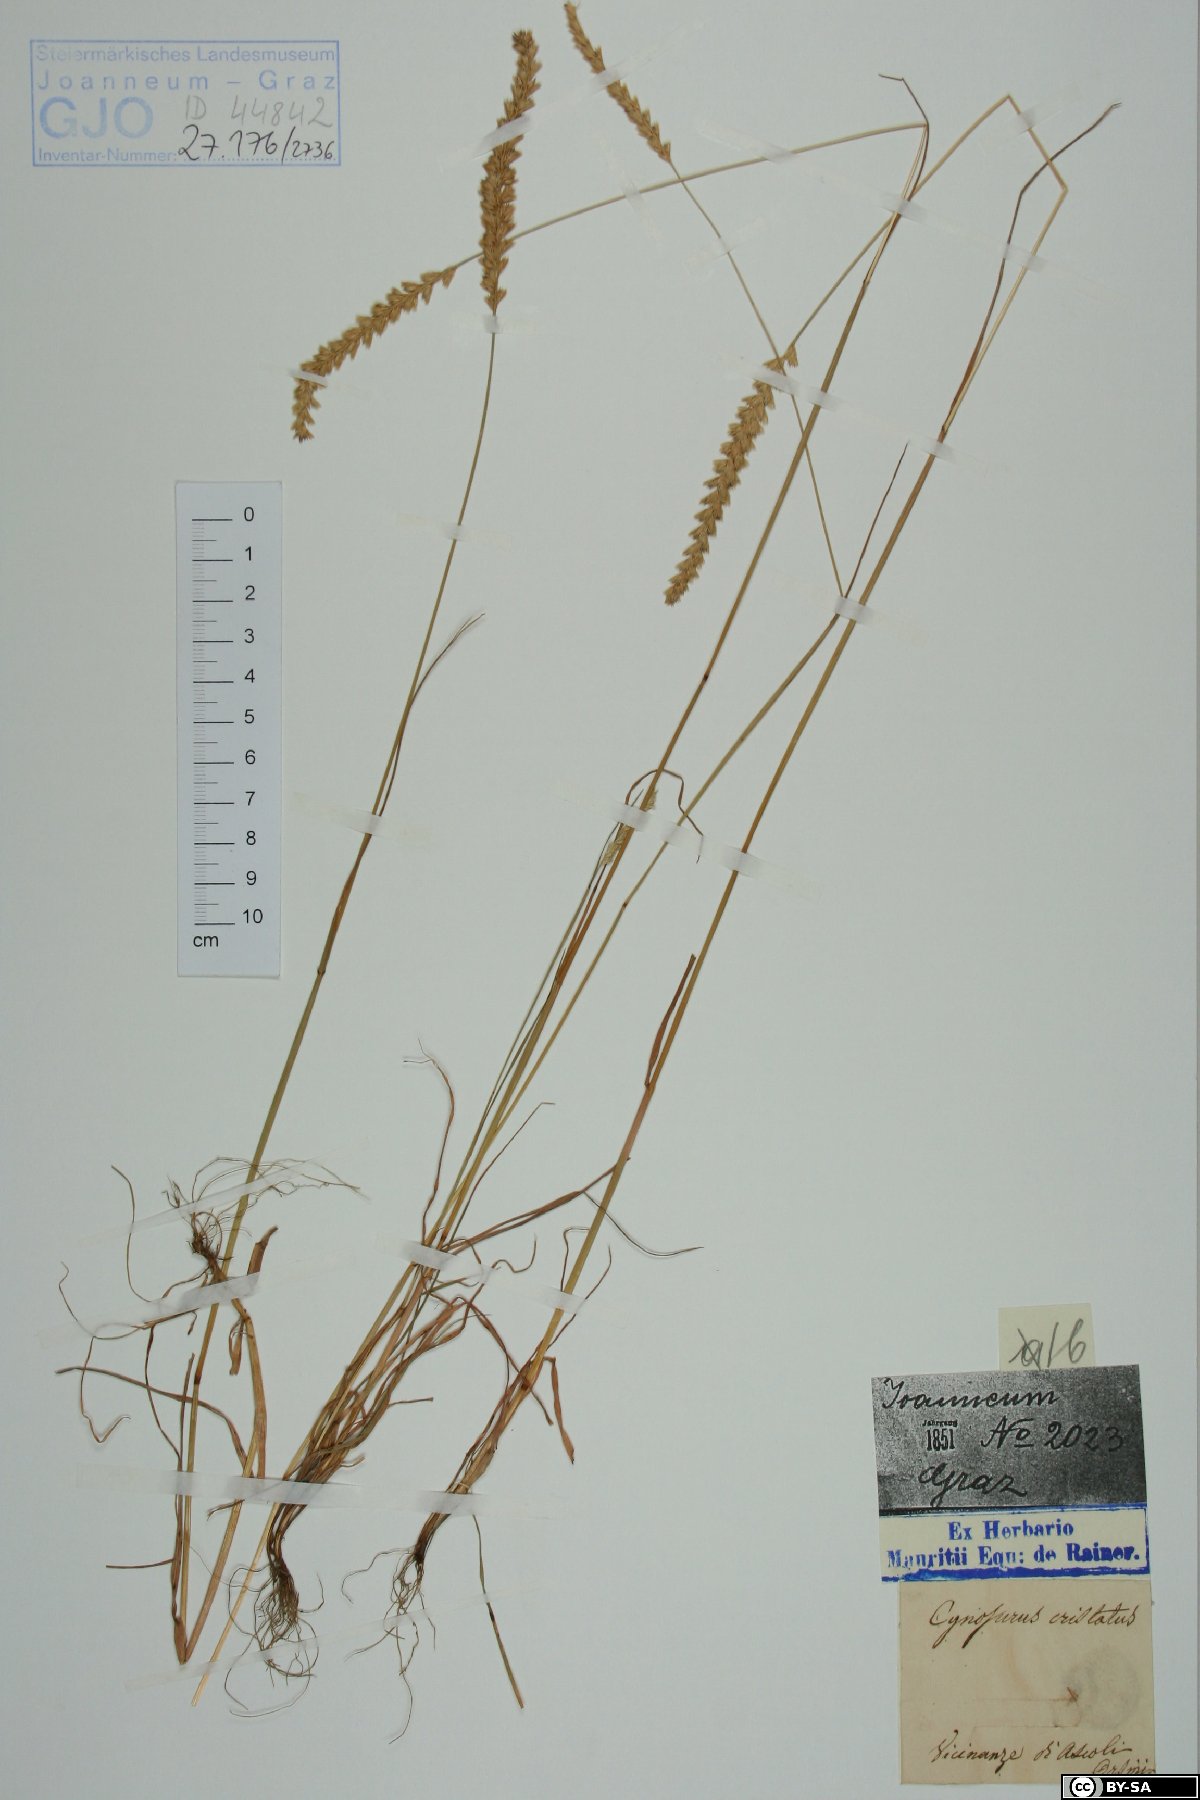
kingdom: Plantae
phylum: Tracheophyta
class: Liliopsida
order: Poales
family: Poaceae
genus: Cynosurus
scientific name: Cynosurus cristatus
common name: Crested dog's-tail
